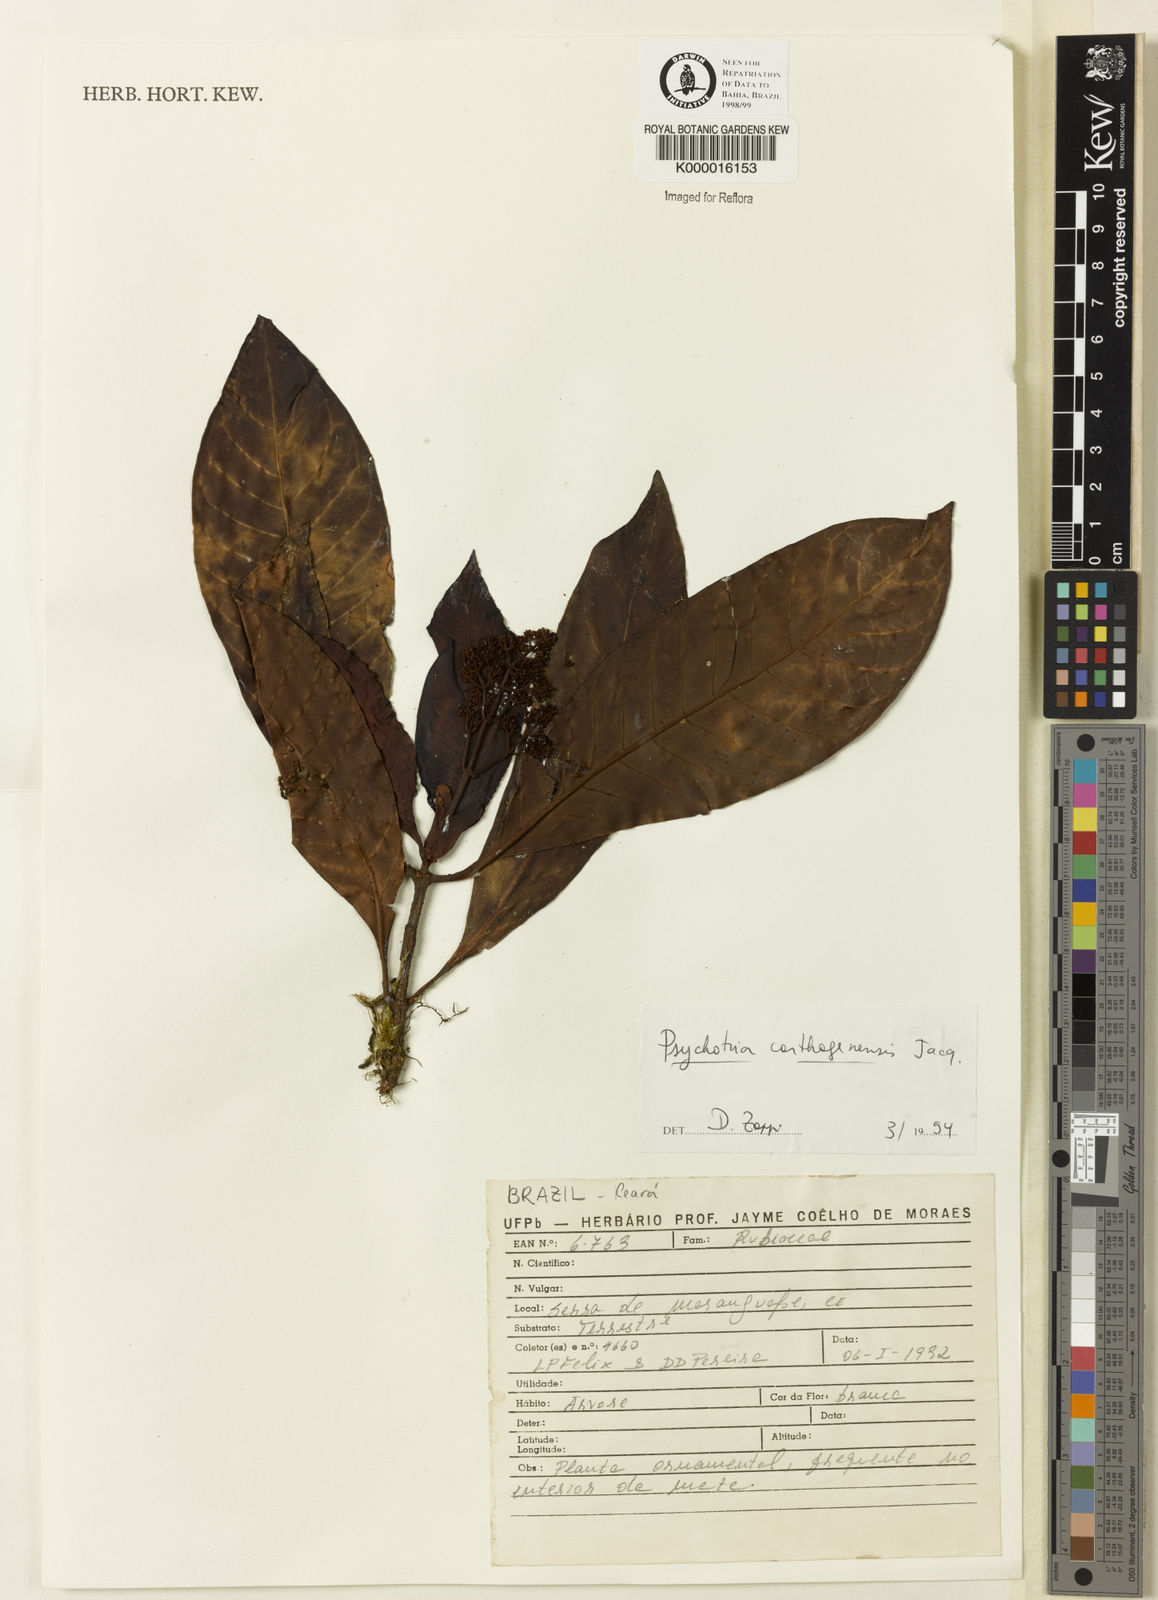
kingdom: Plantae
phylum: Tracheophyta
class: Magnoliopsida
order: Gentianales
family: Rubiaceae
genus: Psychotria
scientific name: Psychotria carthagenensis
